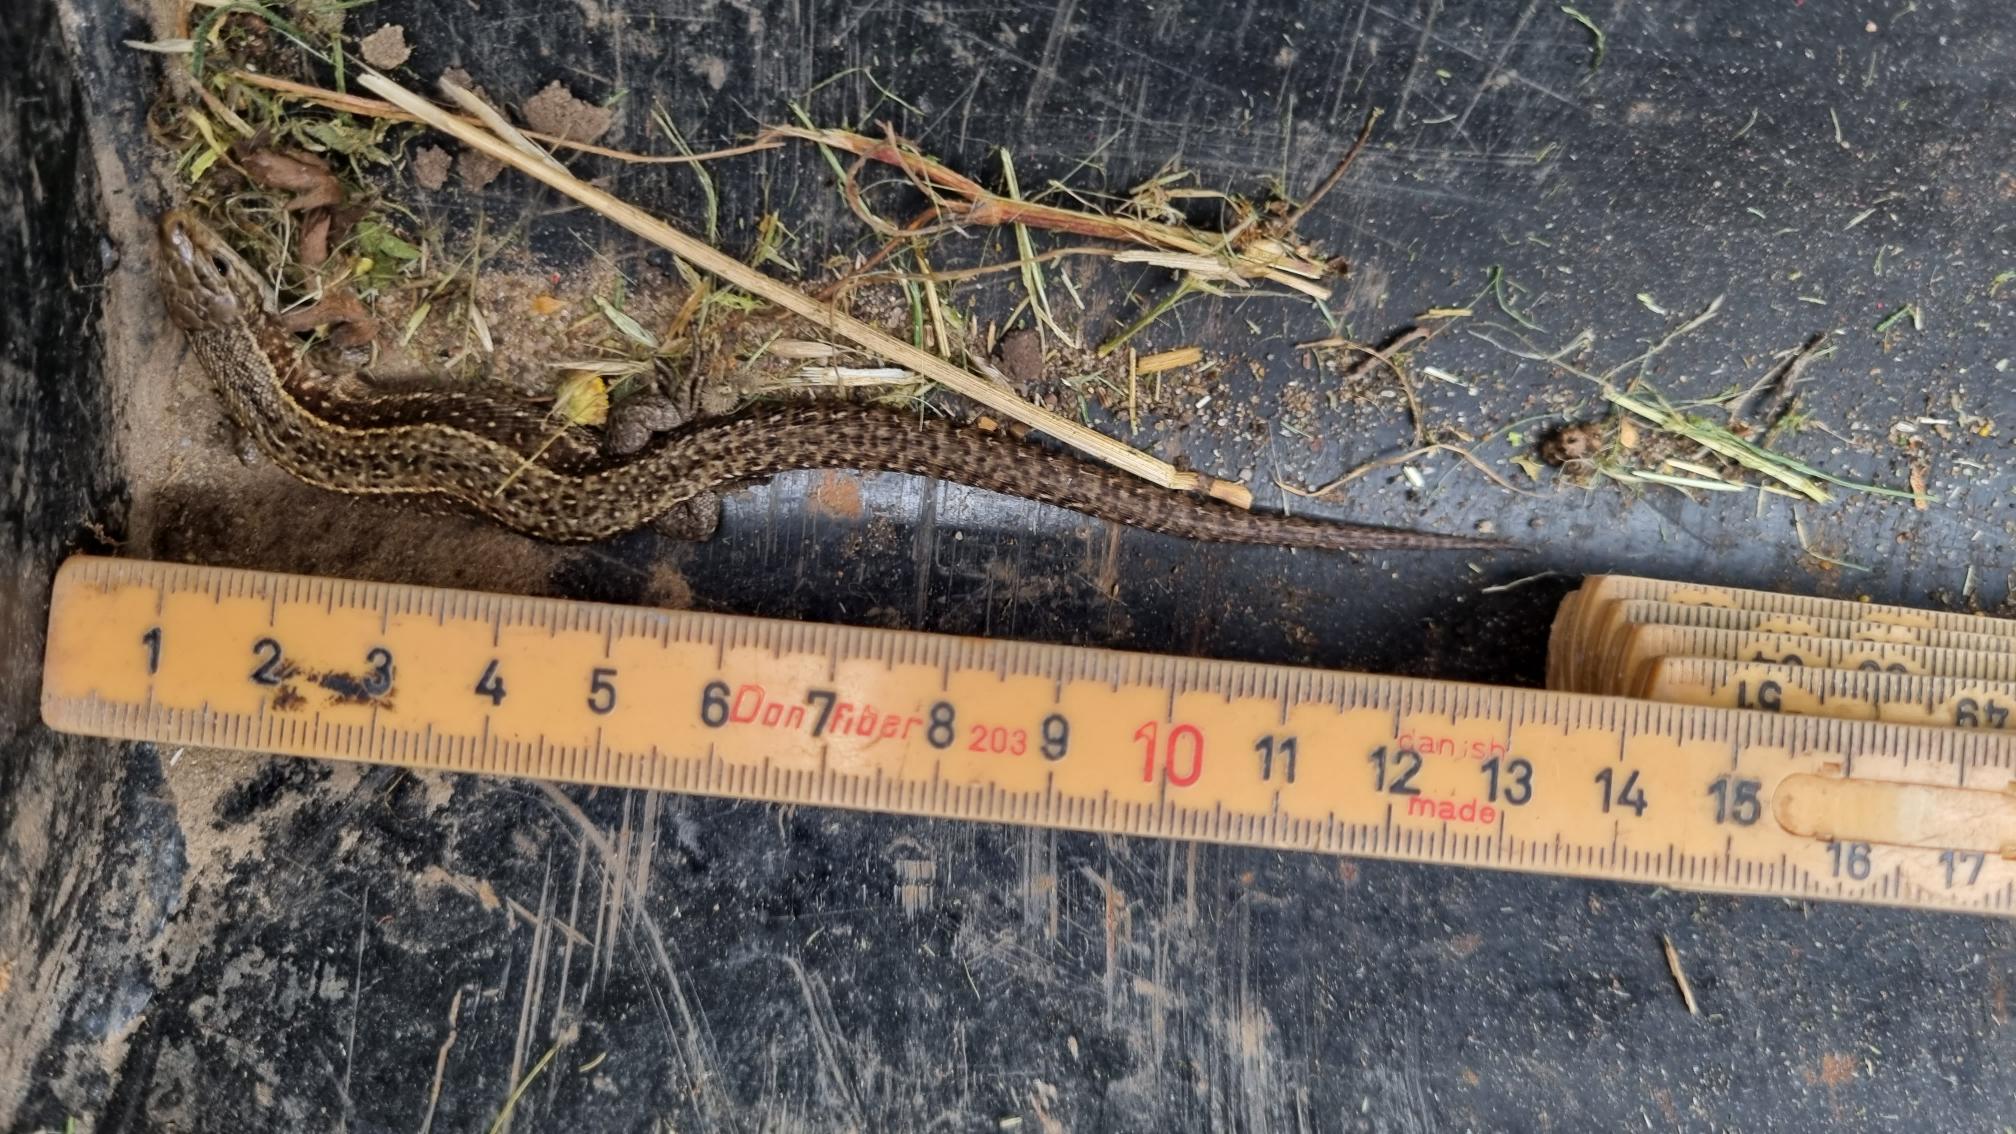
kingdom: Animalia
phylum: Chordata
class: Squamata
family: Lacertidae
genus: Zootoca
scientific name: Zootoca vivipara
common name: Skovfirben
